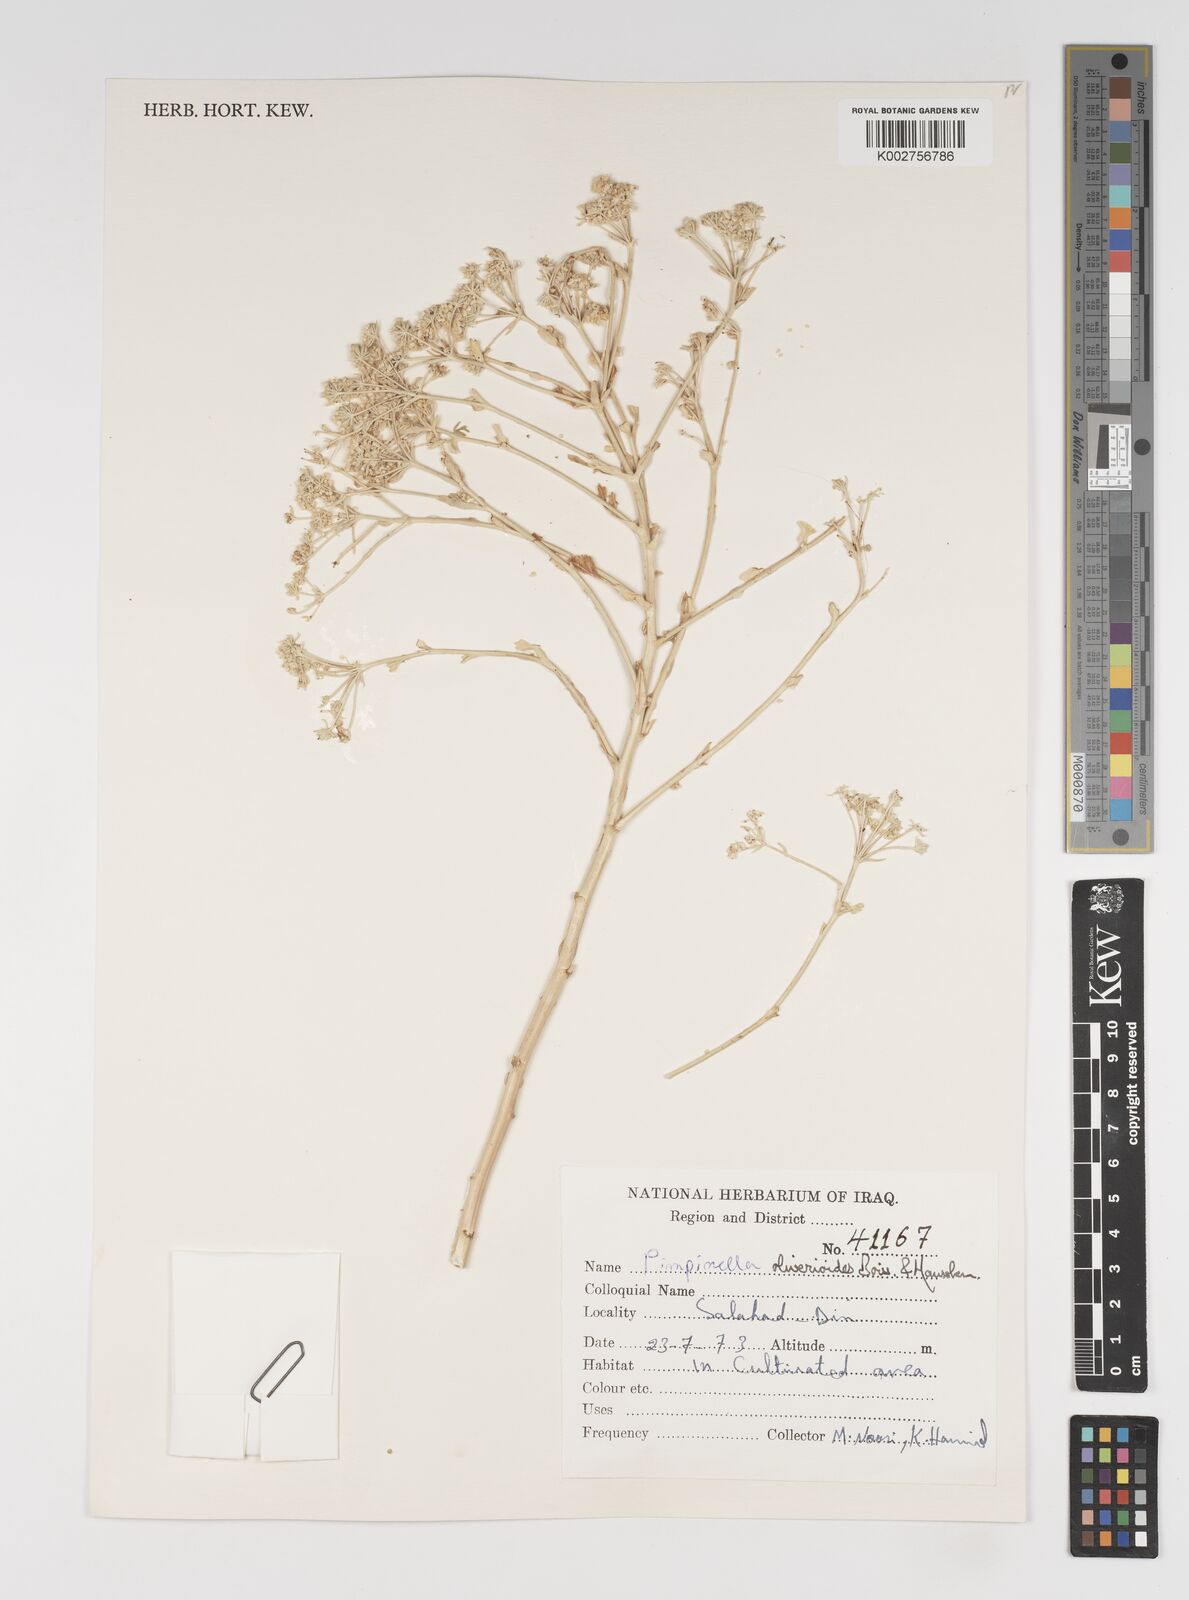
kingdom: Plantae
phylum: Tracheophyta
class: Magnoliopsida
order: Apiales
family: Apiaceae
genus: Pimpinella
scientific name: Pimpinella puberula
